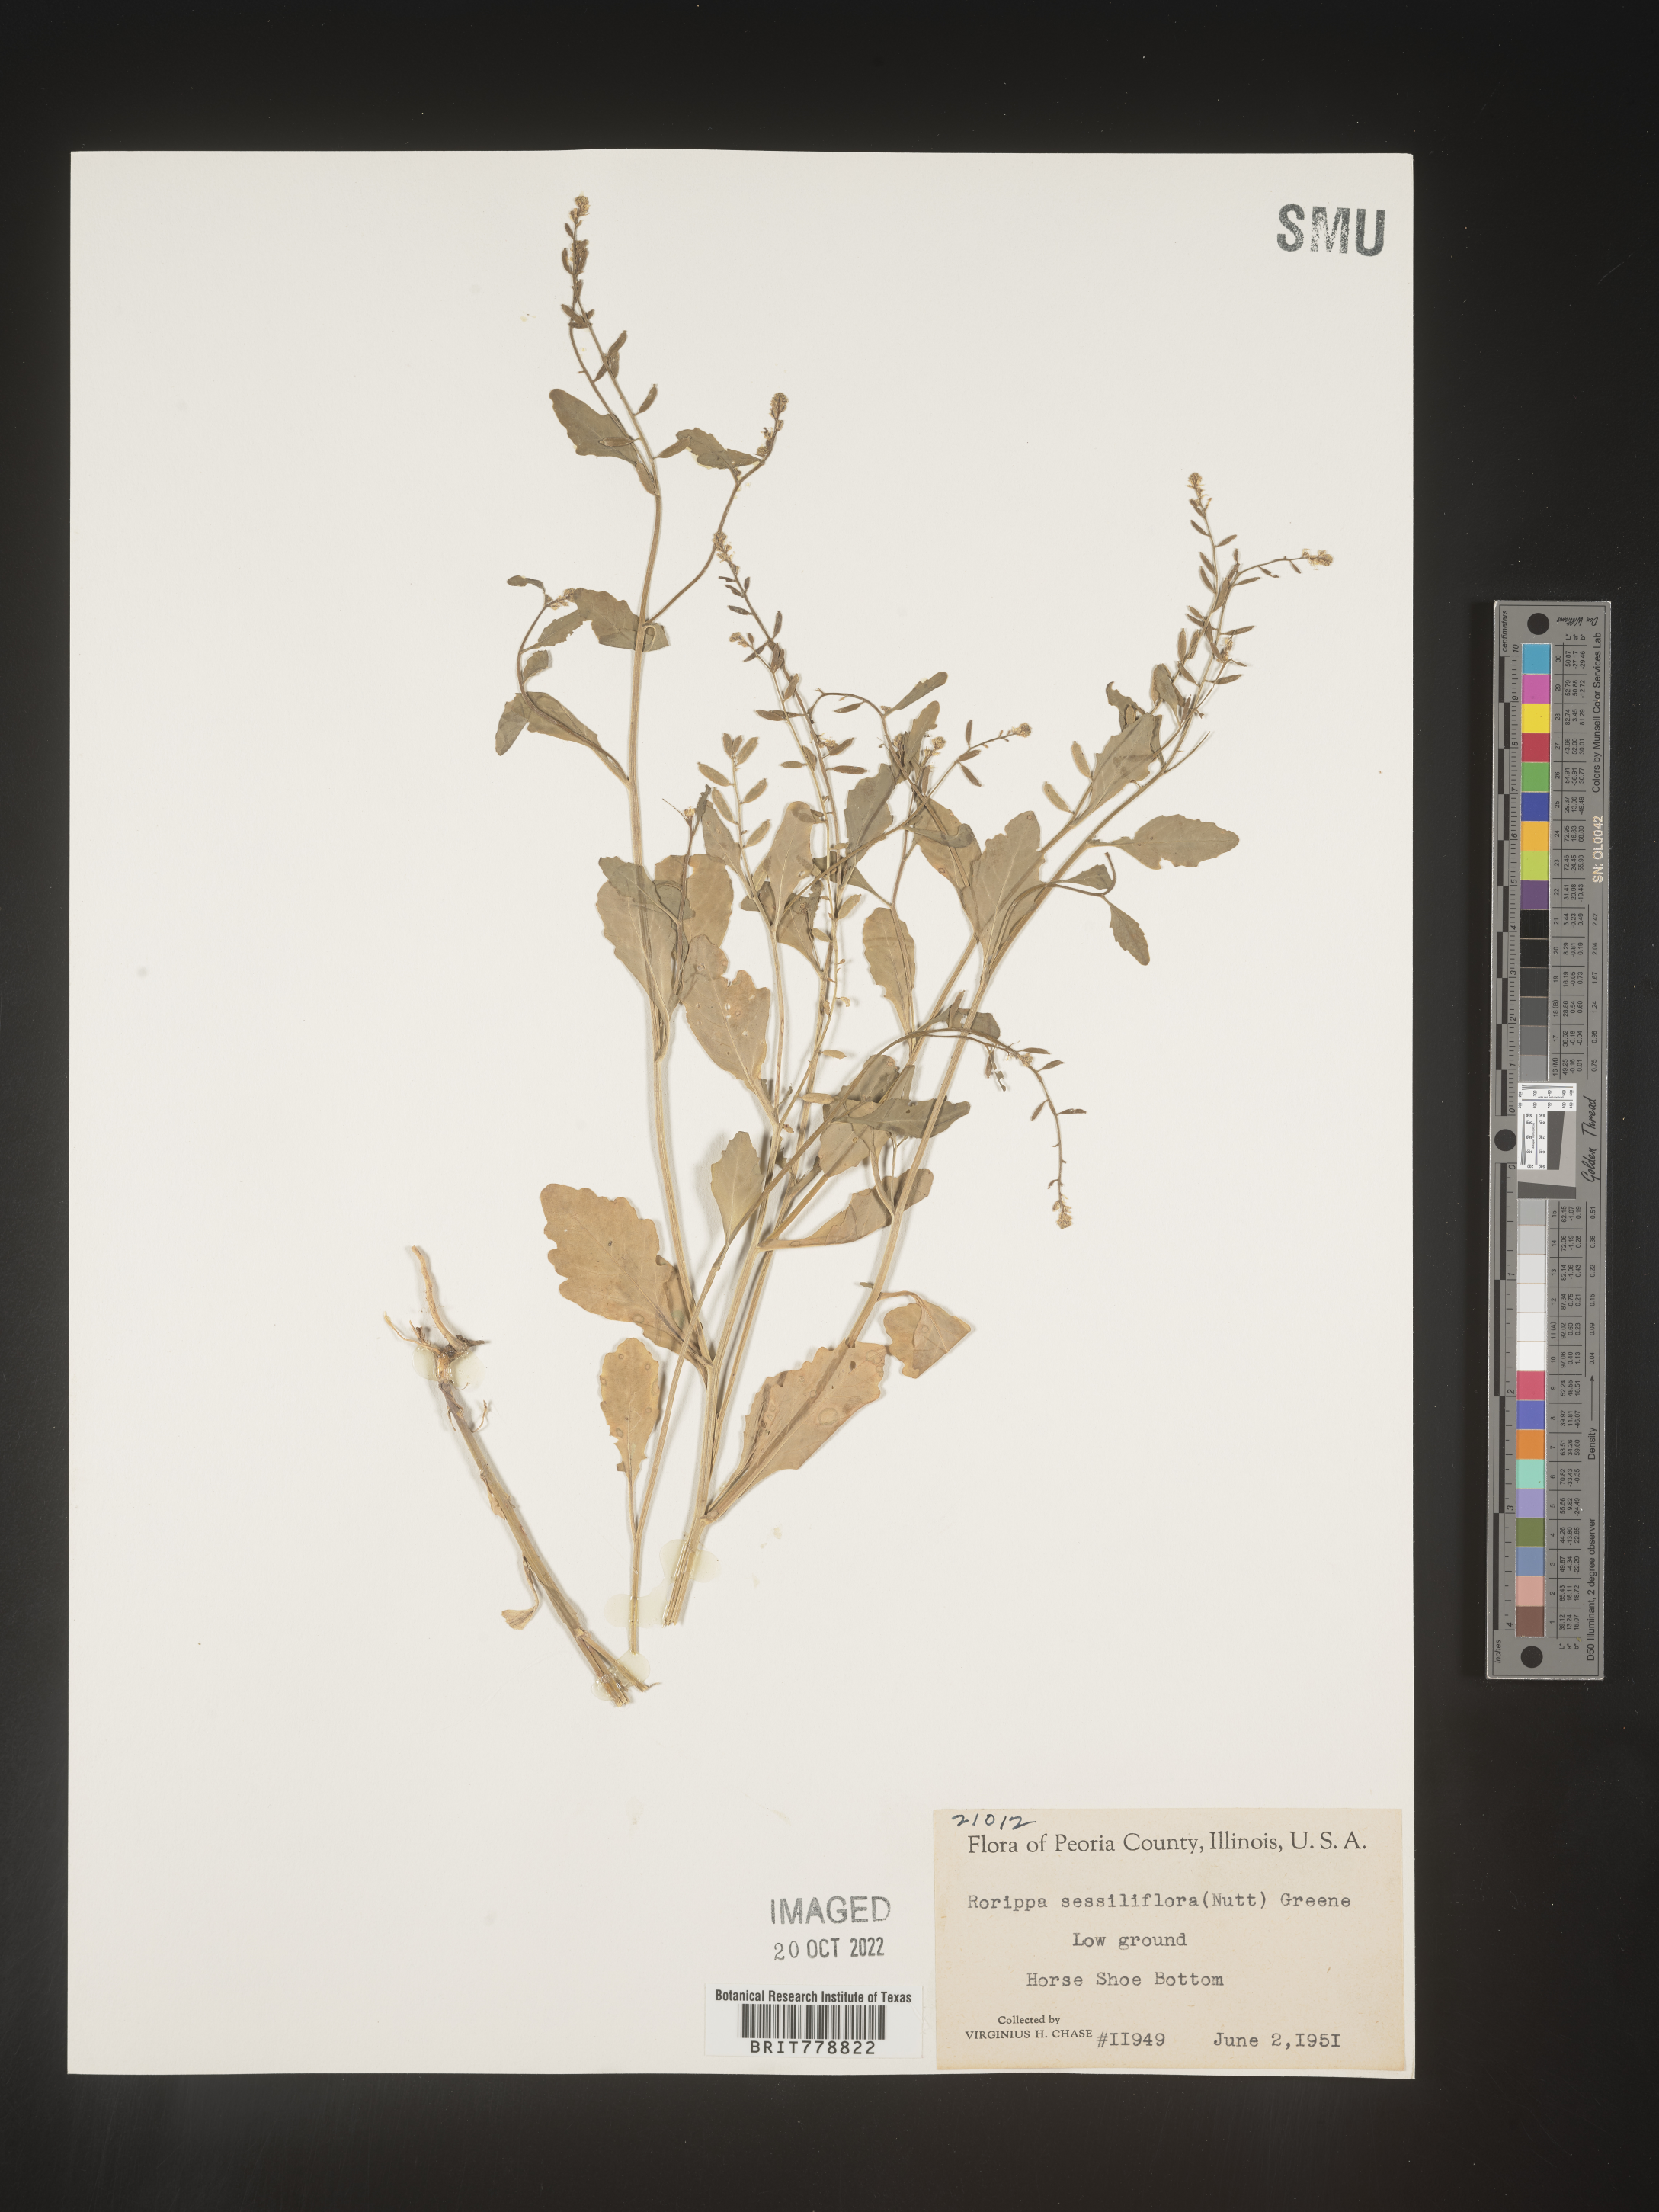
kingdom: Plantae
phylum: Tracheophyta
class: Magnoliopsida
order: Brassicales
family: Brassicaceae
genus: Rorippa
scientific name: Rorippa sessiliflora
